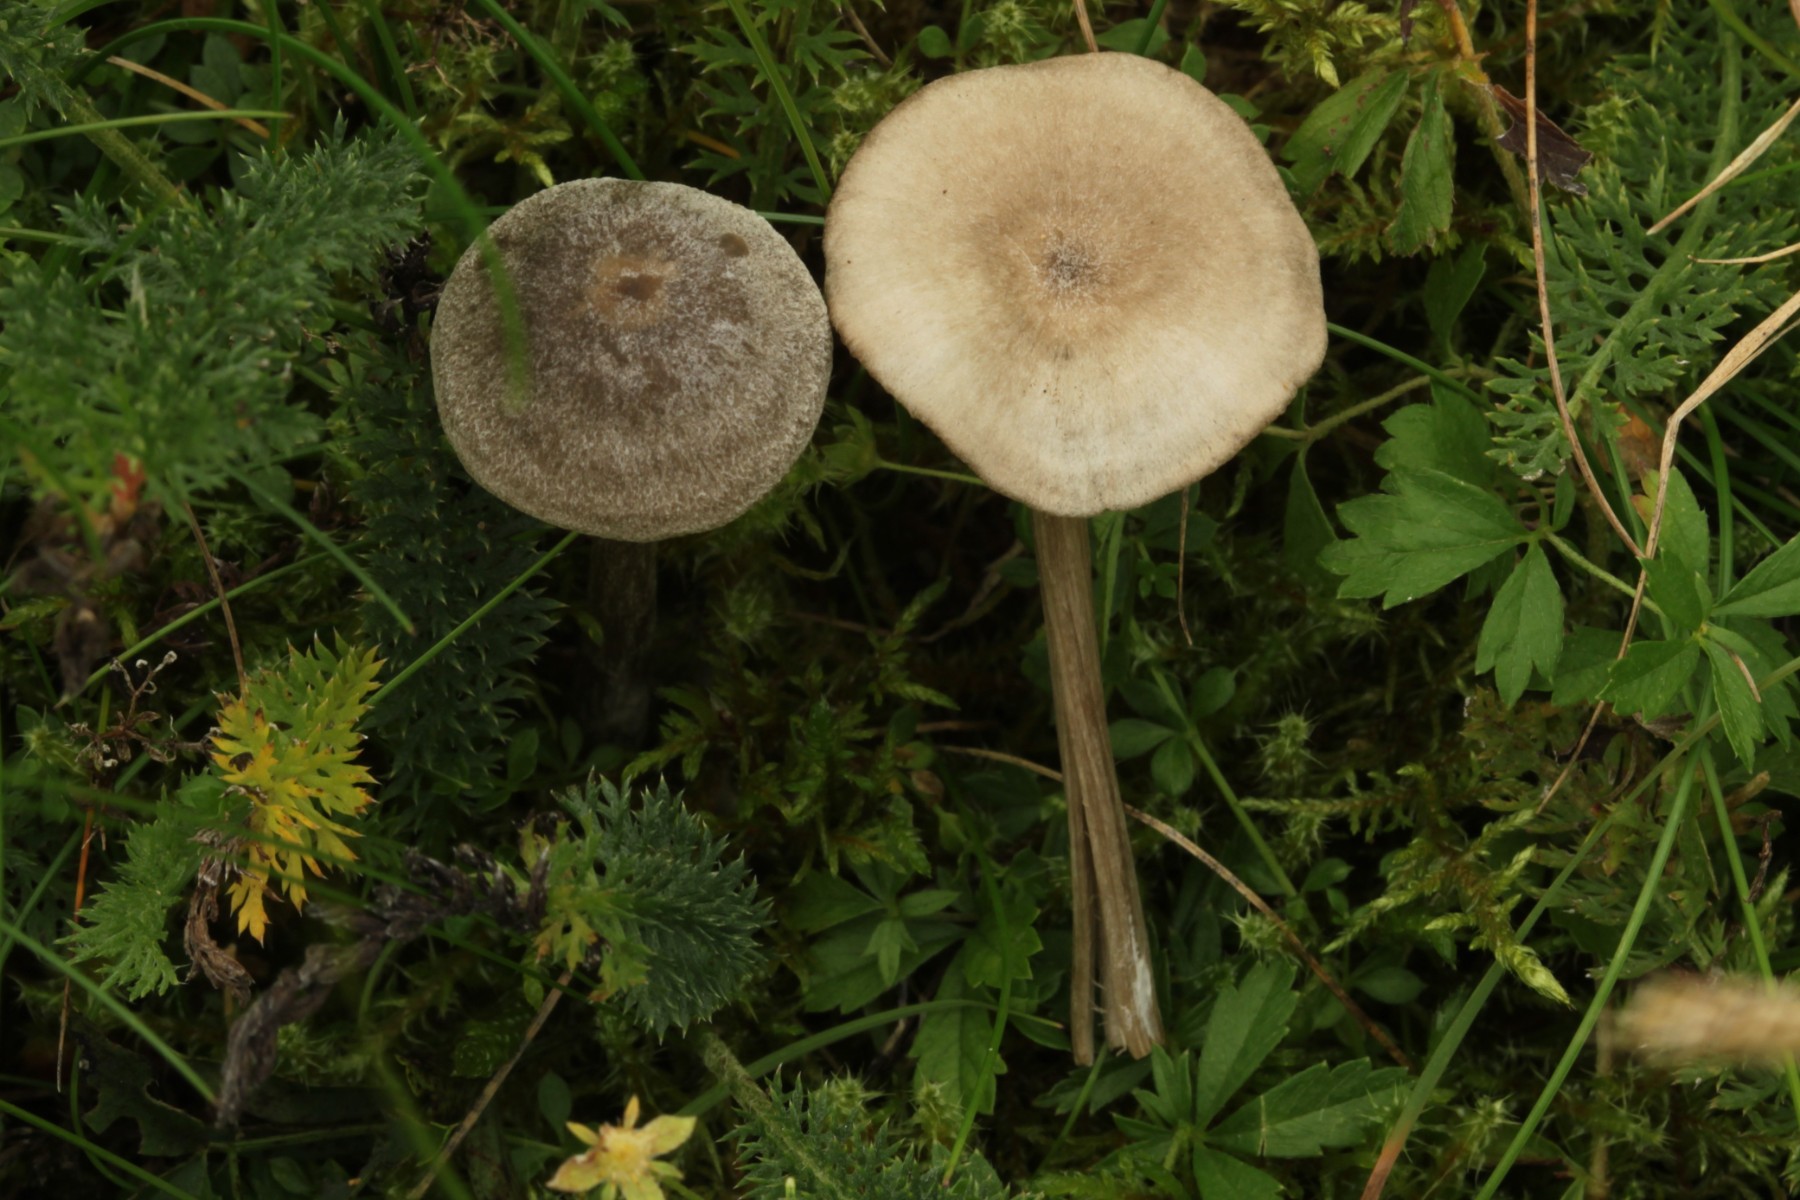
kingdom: Fungi
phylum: Basidiomycota
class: Agaricomycetes
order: Agaricales
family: Entolomataceae
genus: Entoloma
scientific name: Entoloma
